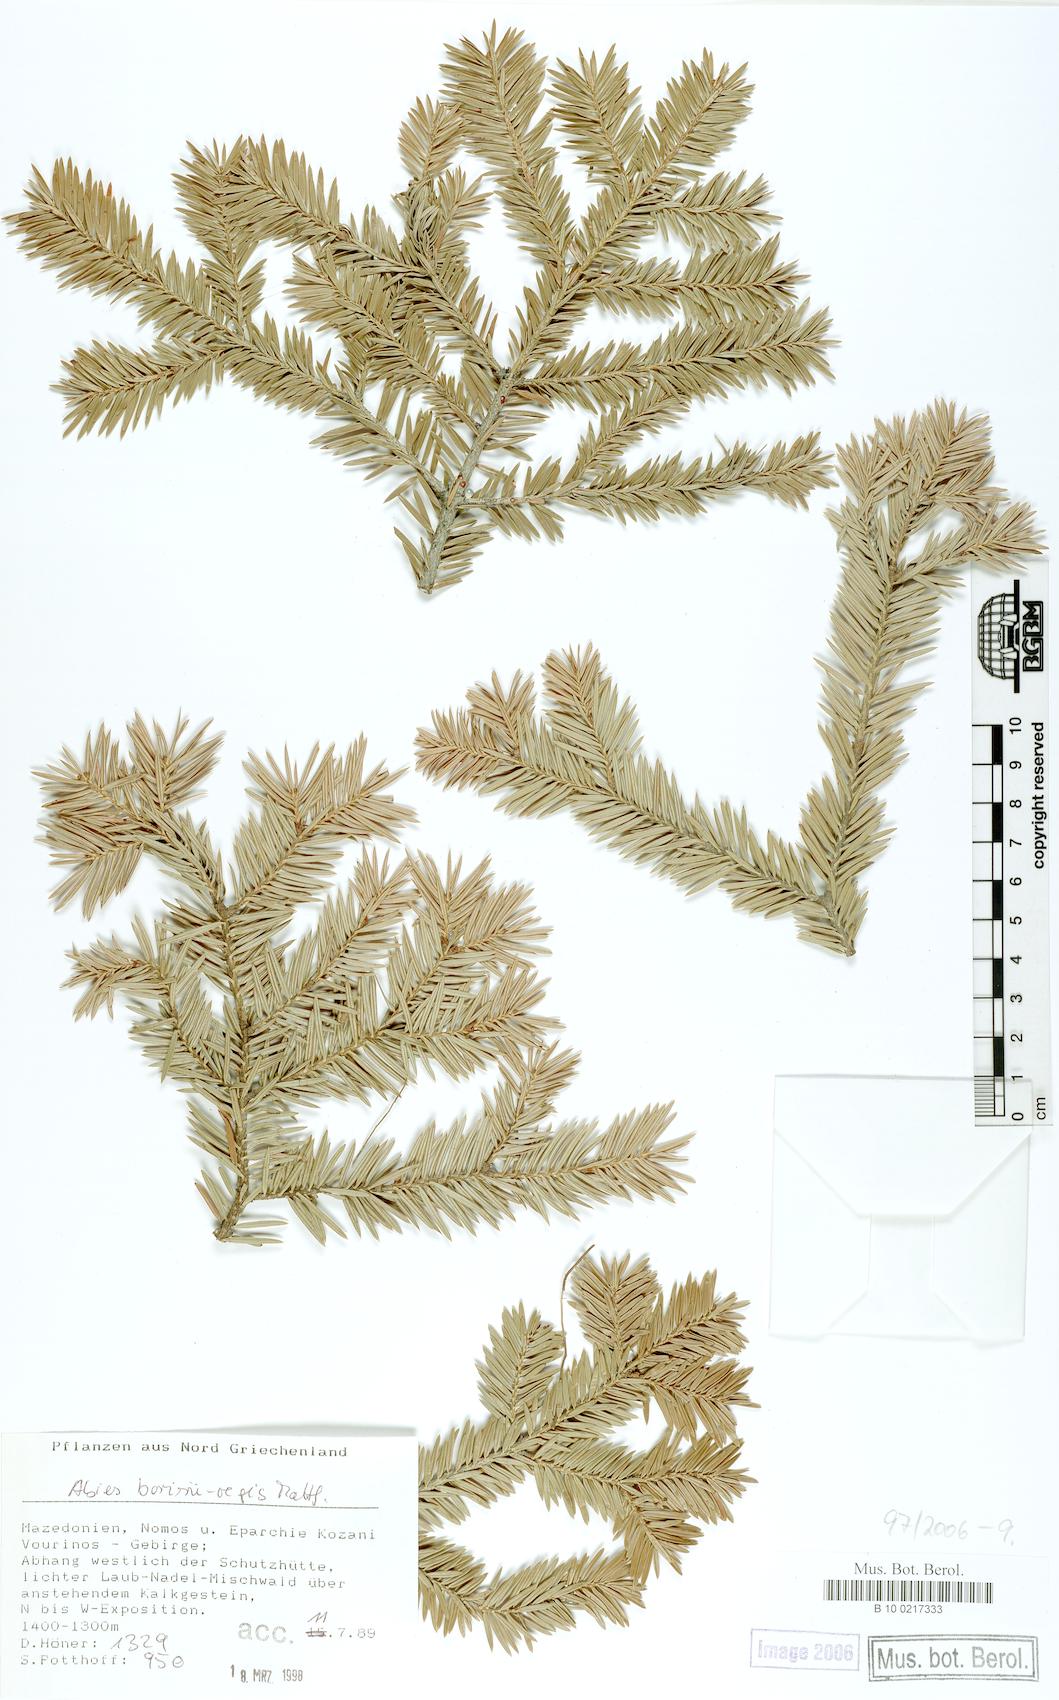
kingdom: Plantae
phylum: Tracheophyta
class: Pinopsida
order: Pinales
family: Pinaceae
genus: Abies
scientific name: Abies borisii-regis
